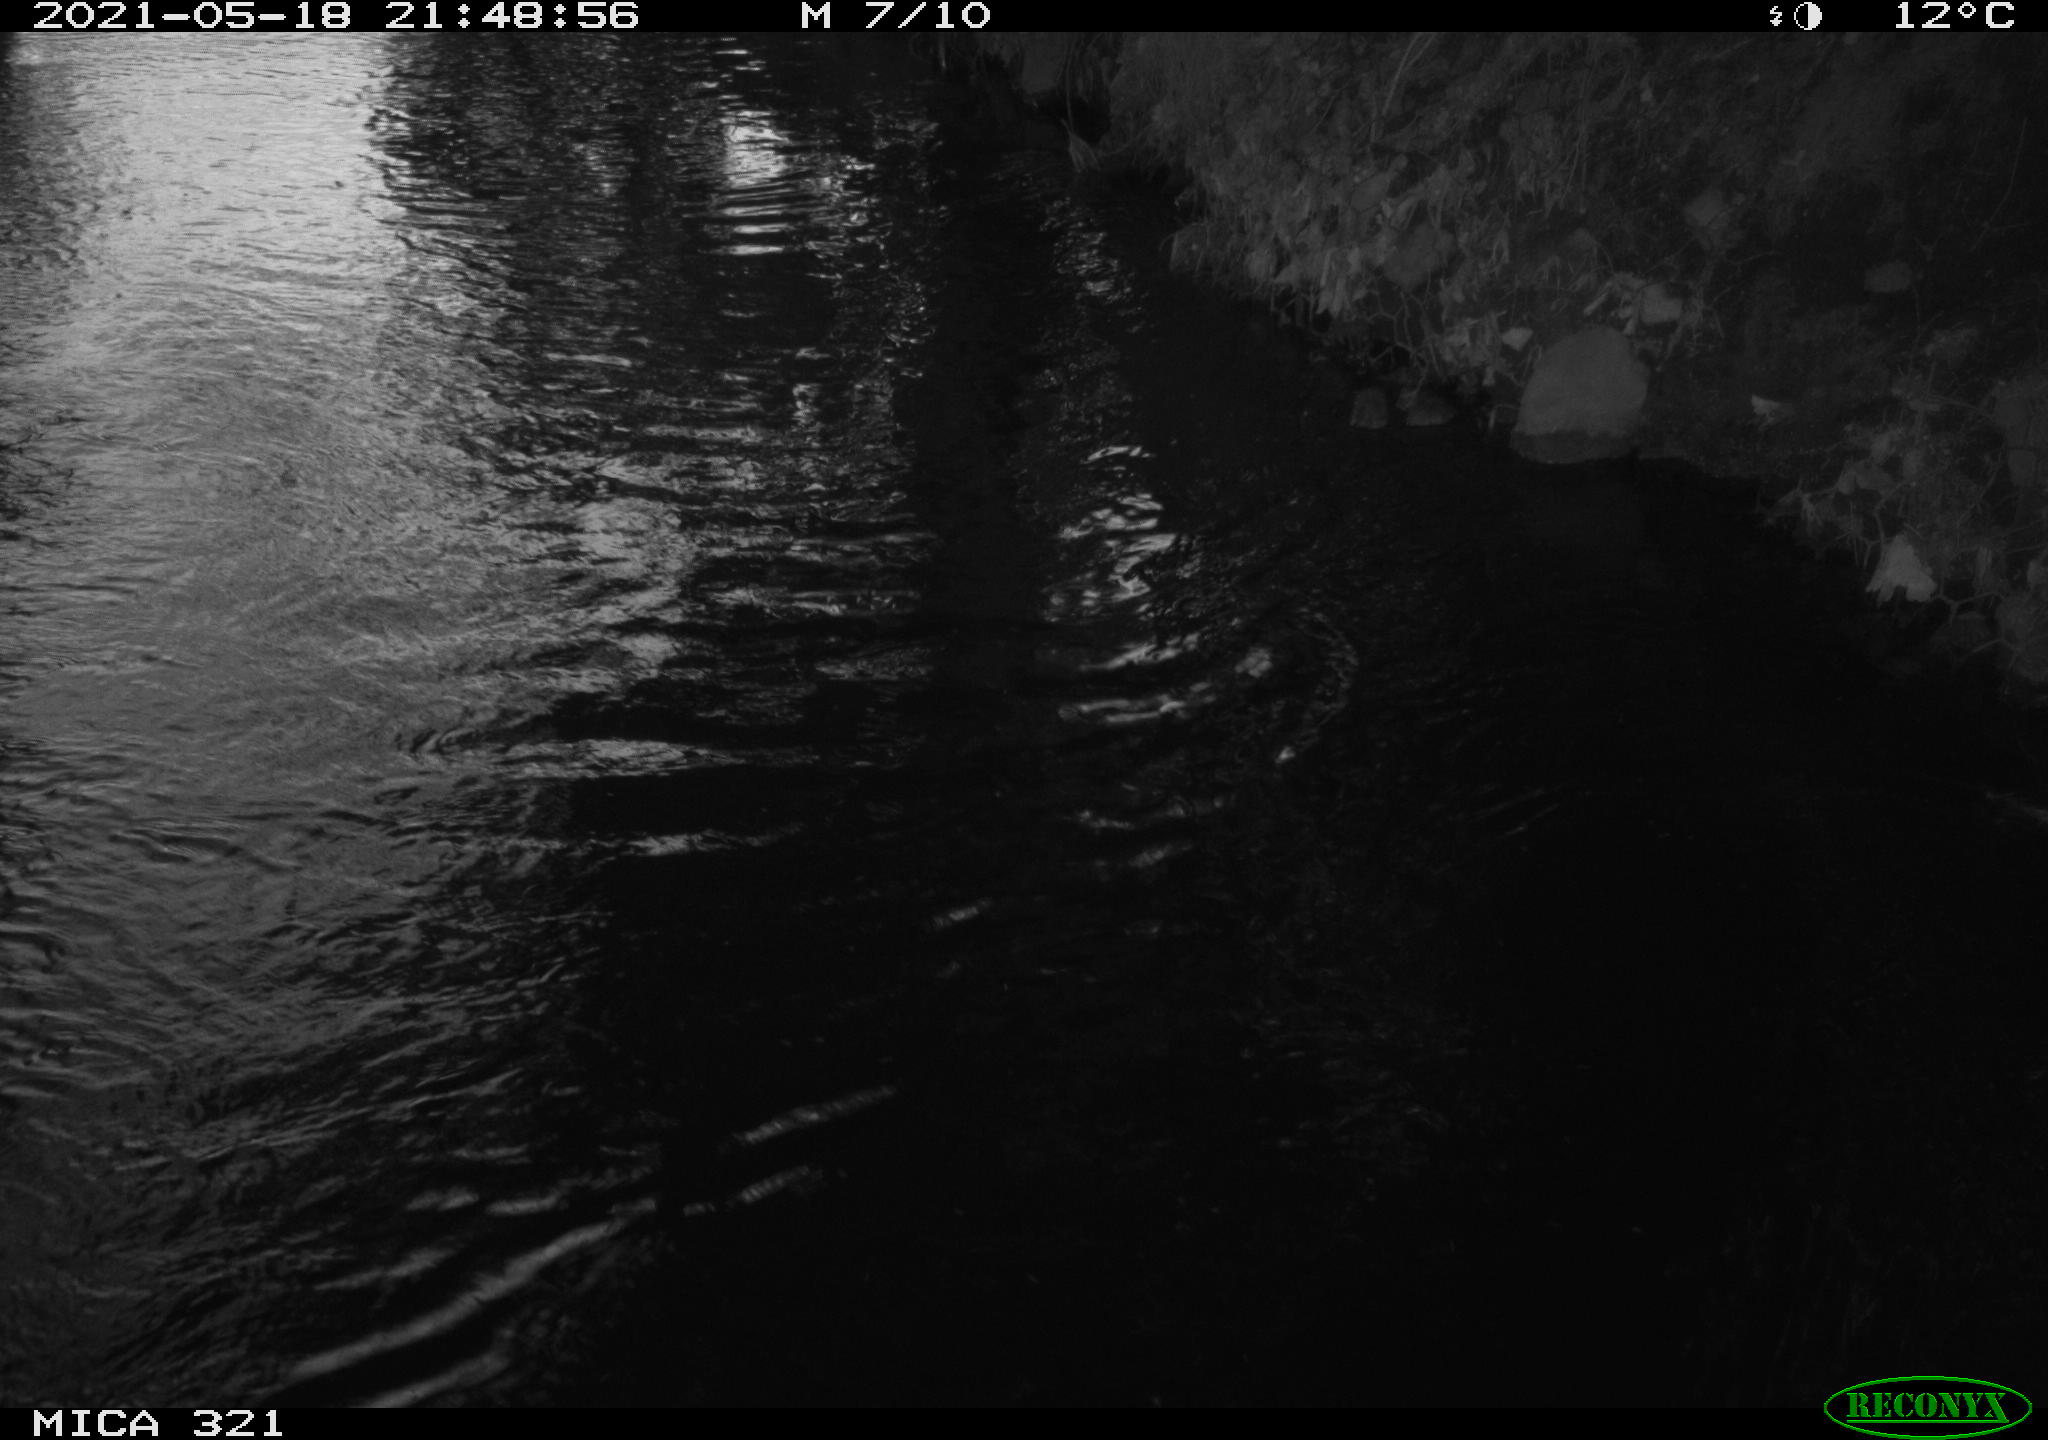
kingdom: Animalia
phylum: Chordata
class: Aves
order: Gruiformes
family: Rallidae
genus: Gallinula
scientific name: Gallinula chloropus
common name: Common moorhen
